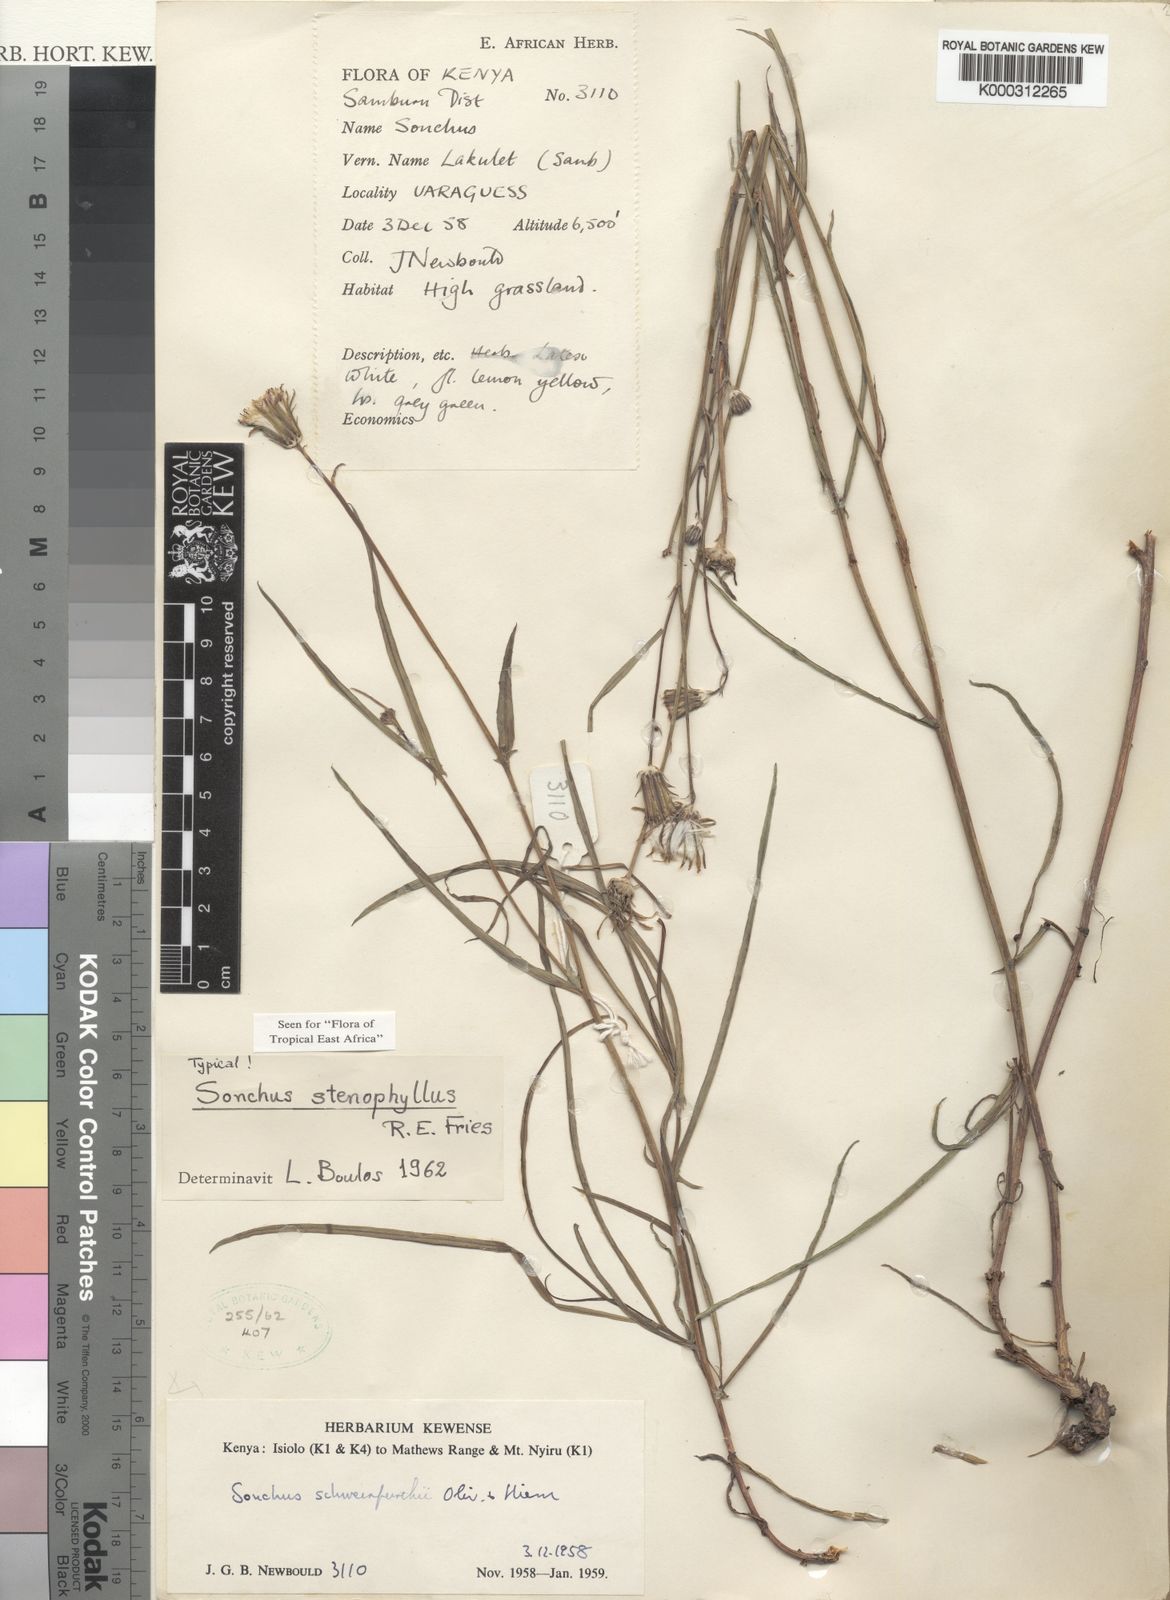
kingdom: Plantae
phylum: Tracheophyta
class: Magnoliopsida
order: Asterales
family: Asteraceae
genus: Sonchus
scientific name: Sonchus stenophyllus
